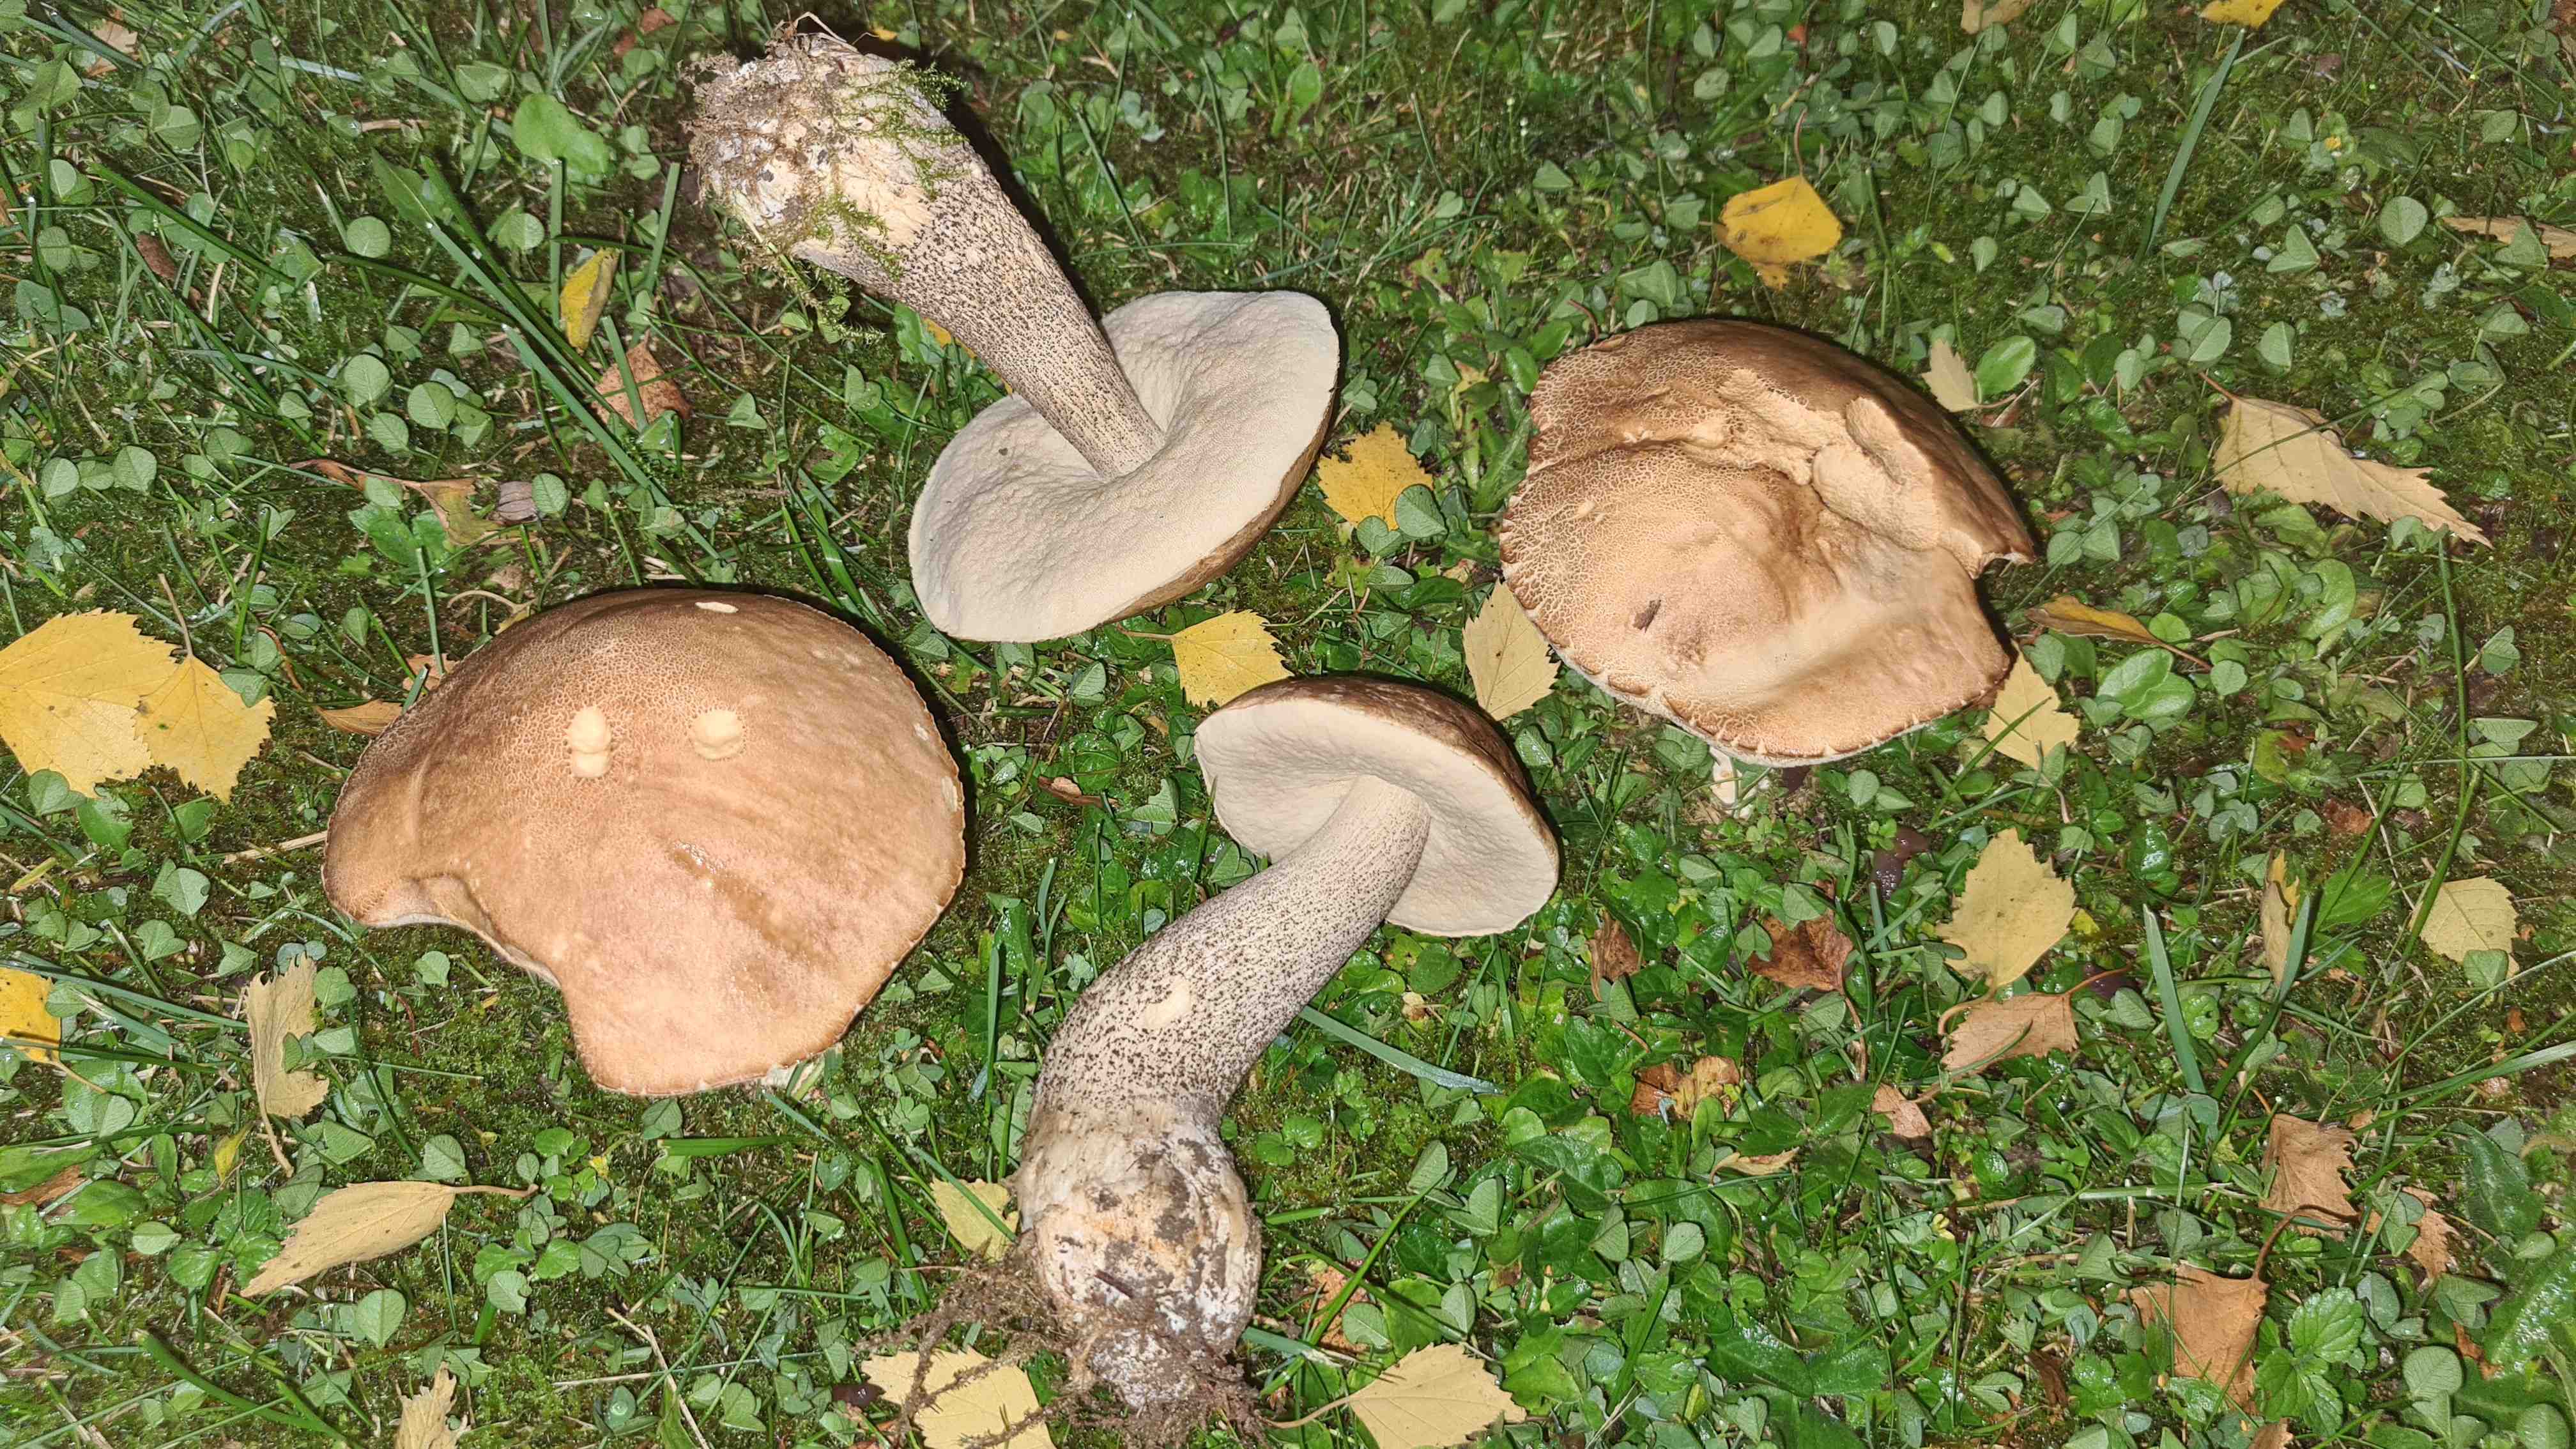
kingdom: Fungi
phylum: Basidiomycota
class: Agaricomycetes
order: Boletales
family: Boletaceae
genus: Leccinum
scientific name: Leccinum scabrum
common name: brun skælrørhat
